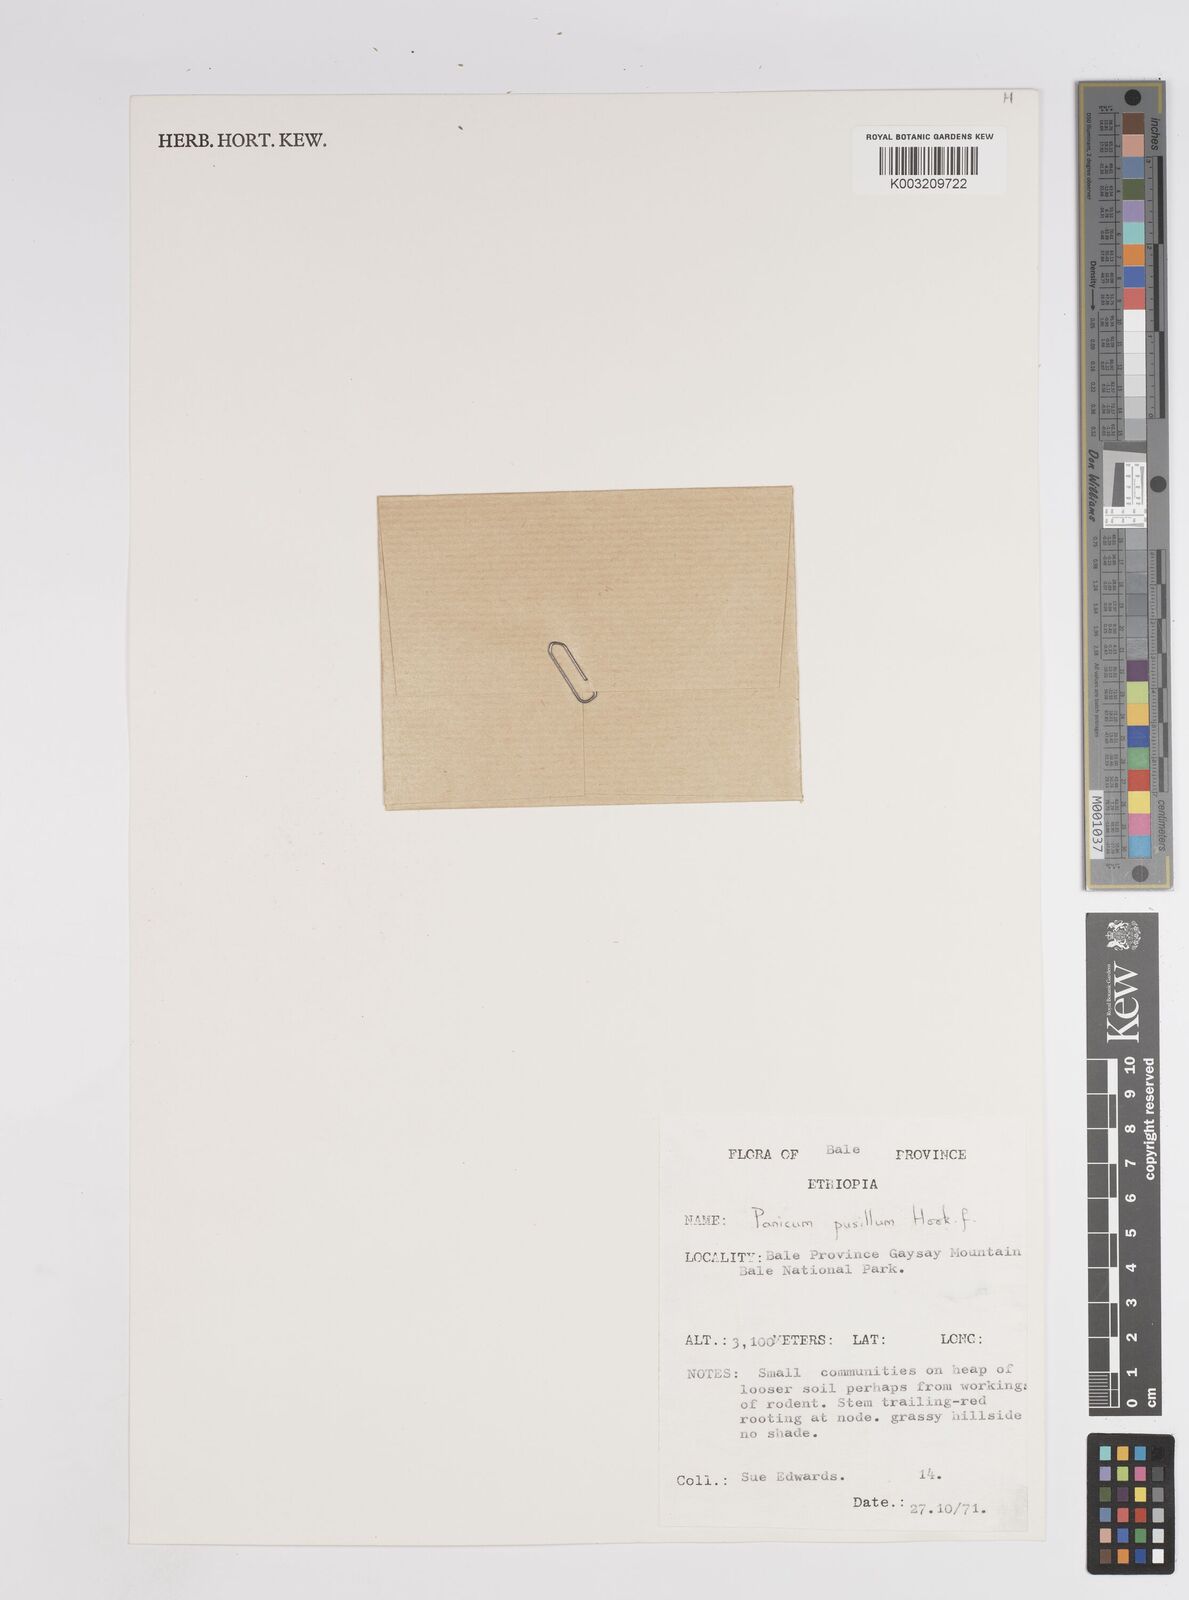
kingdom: Plantae
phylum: Tracheophyta
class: Liliopsida
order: Poales
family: Poaceae
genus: Panicum
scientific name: Panicum pusillum
